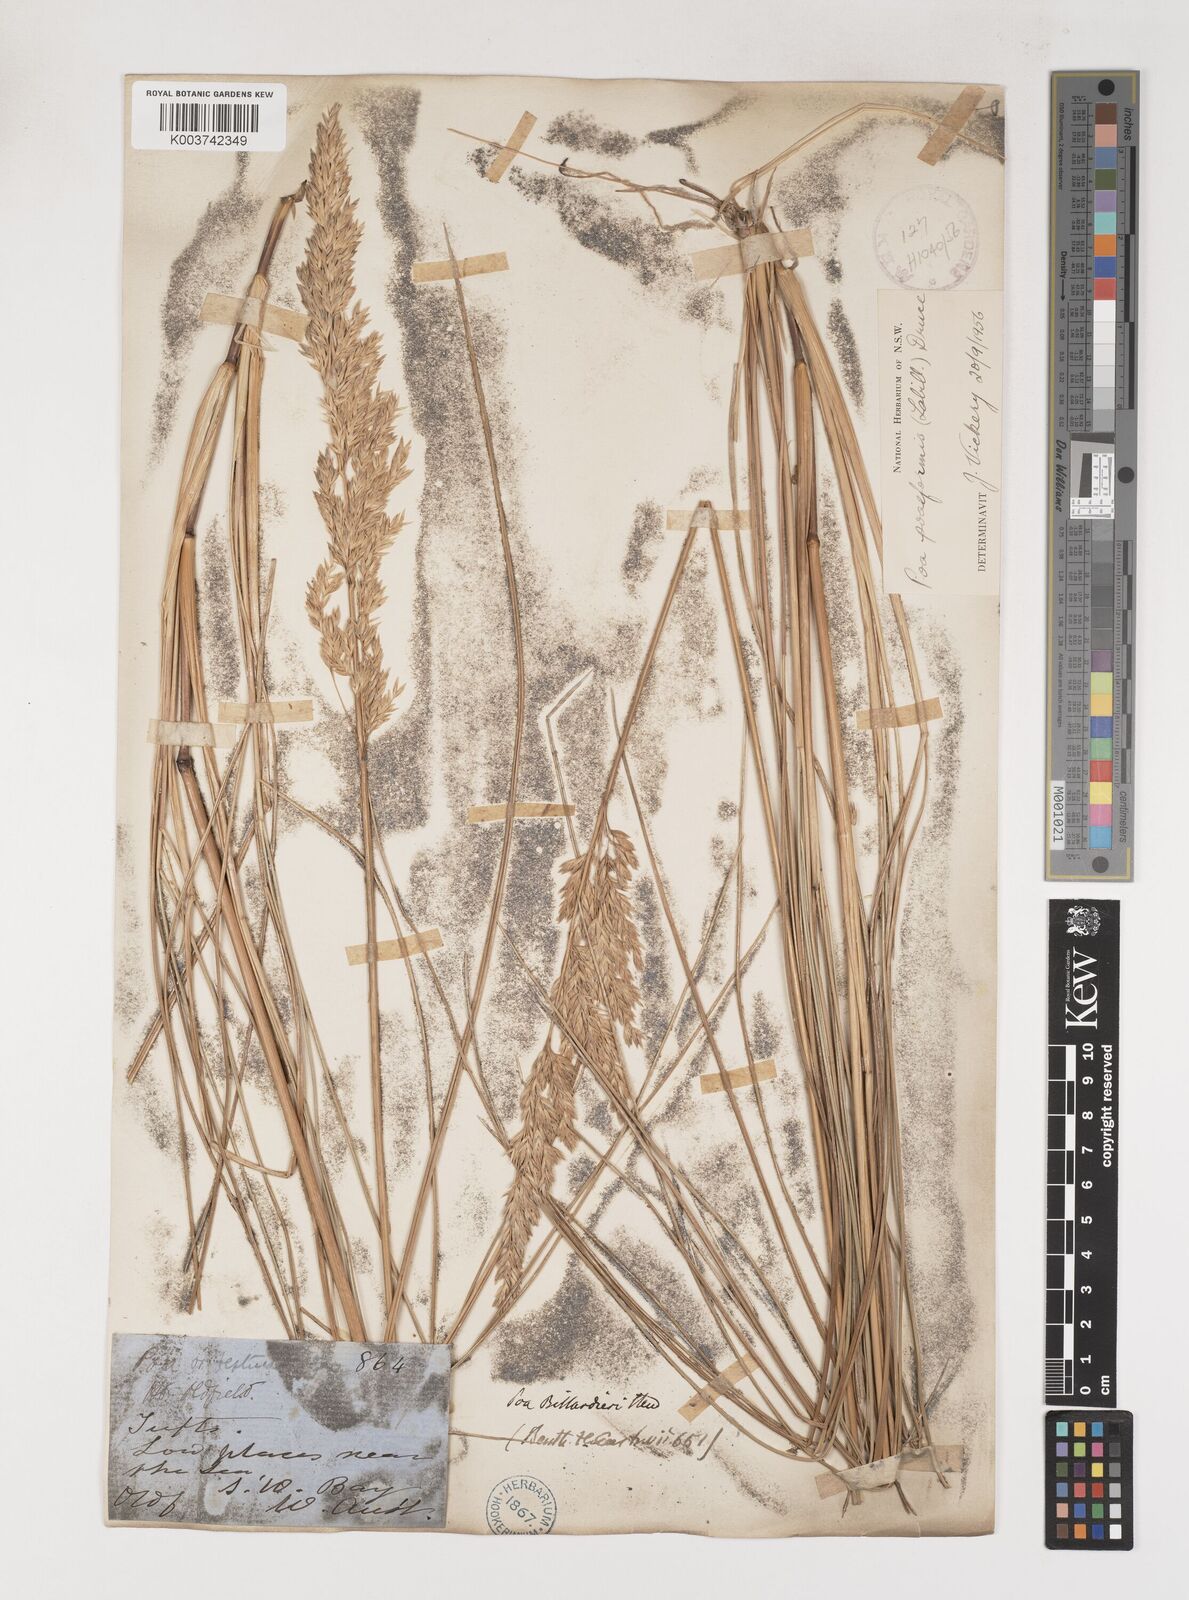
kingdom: Plantae
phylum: Tracheophyta
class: Liliopsida
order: Poales
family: Poaceae
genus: Poa
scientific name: Poa poiformis
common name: Tussock poa
